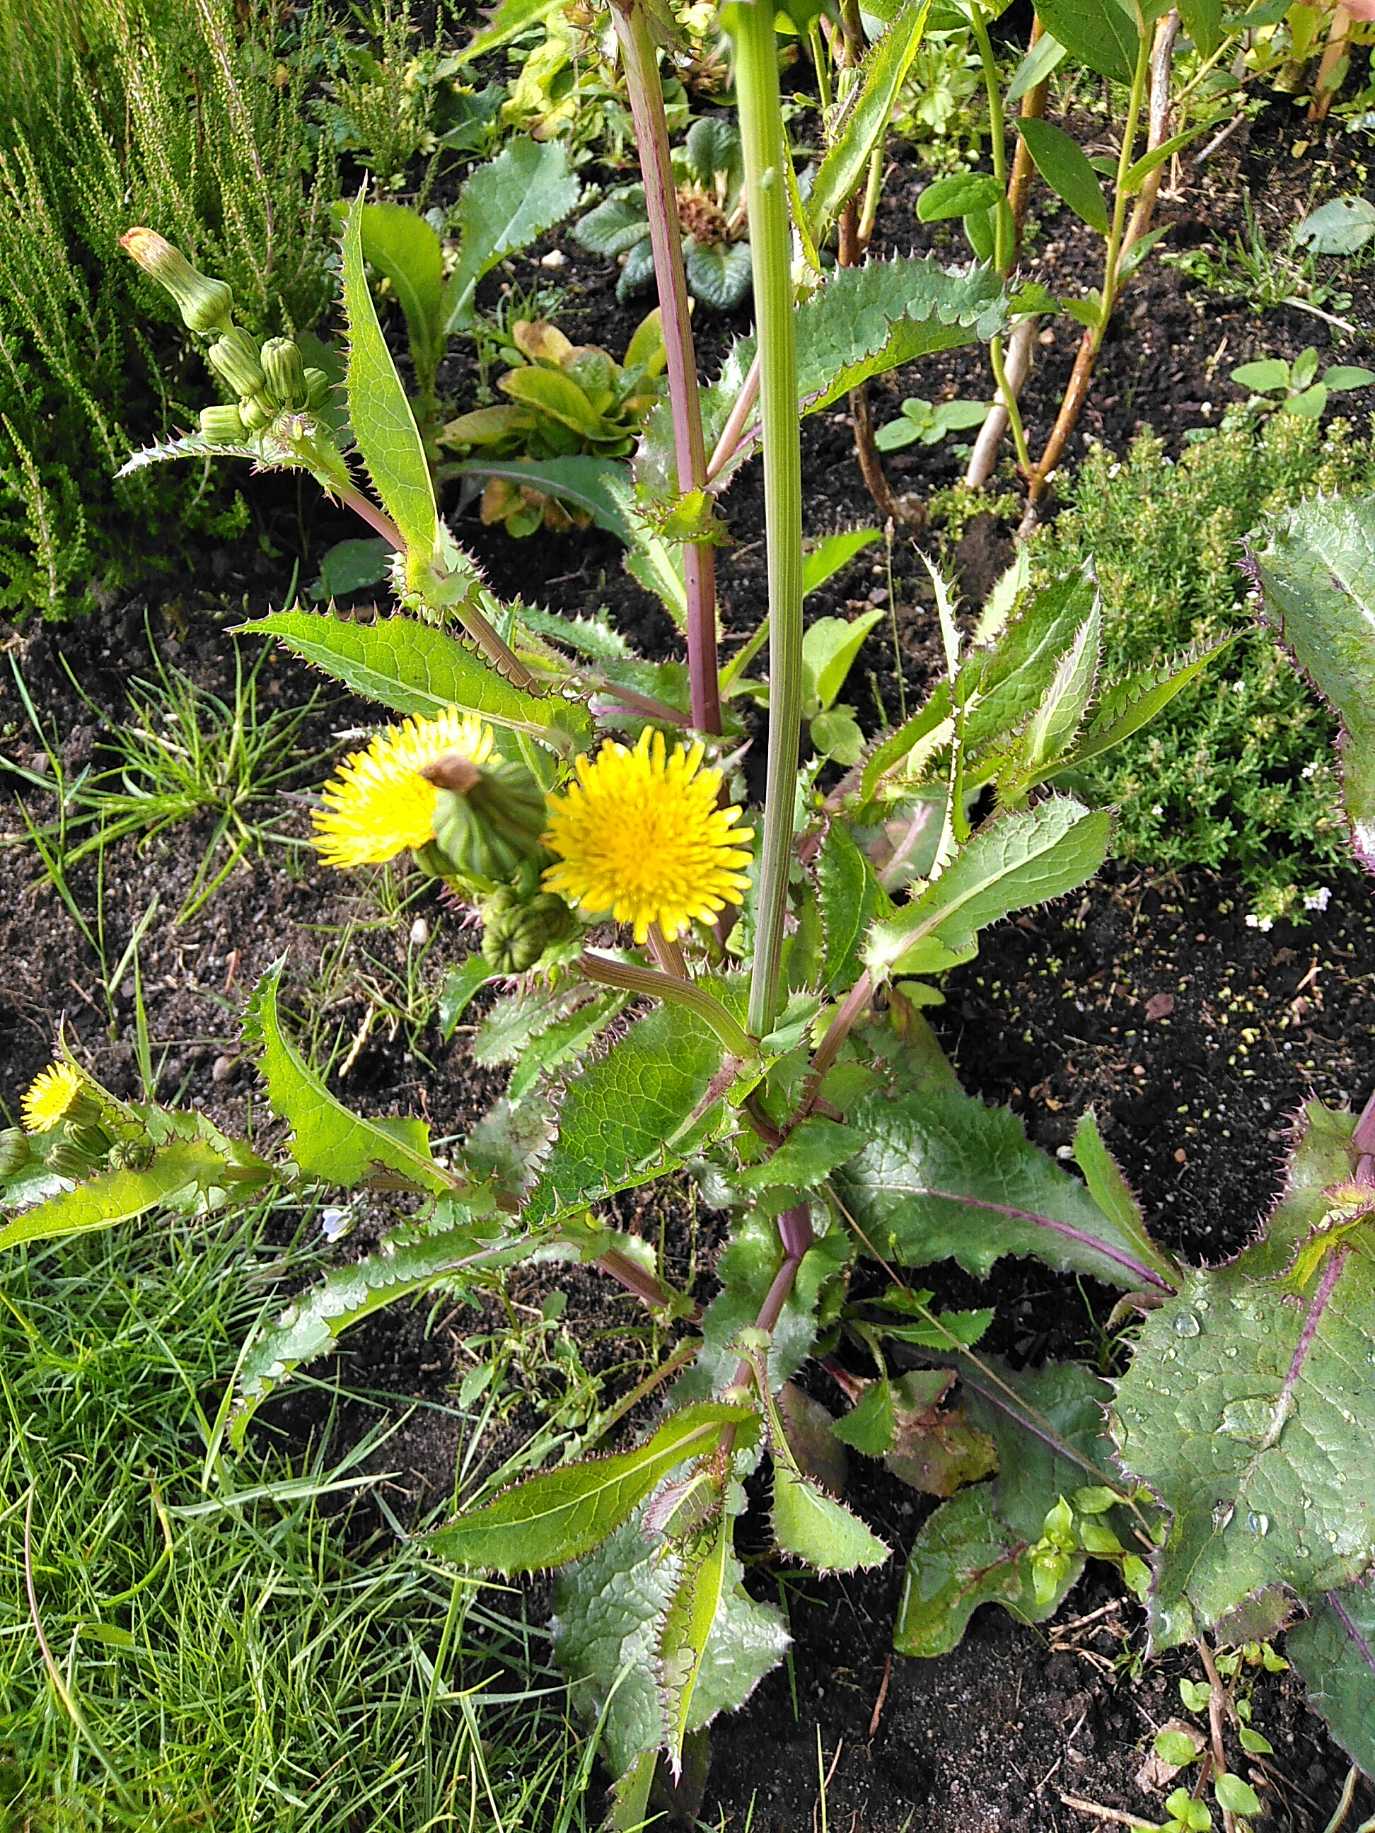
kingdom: Plantae
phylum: Tracheophyta
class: Magnoliopsida
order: Asterales
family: Asteraceae
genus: Sonchus
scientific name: Sonchus asper
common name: Ru svinemælk
